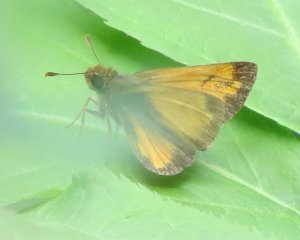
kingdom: Animalia
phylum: Arthropoda
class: Insecta
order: Lepidoptera
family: Hesperiidae
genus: Lon
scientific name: Lon hobomok
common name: Hobomok Skipper
